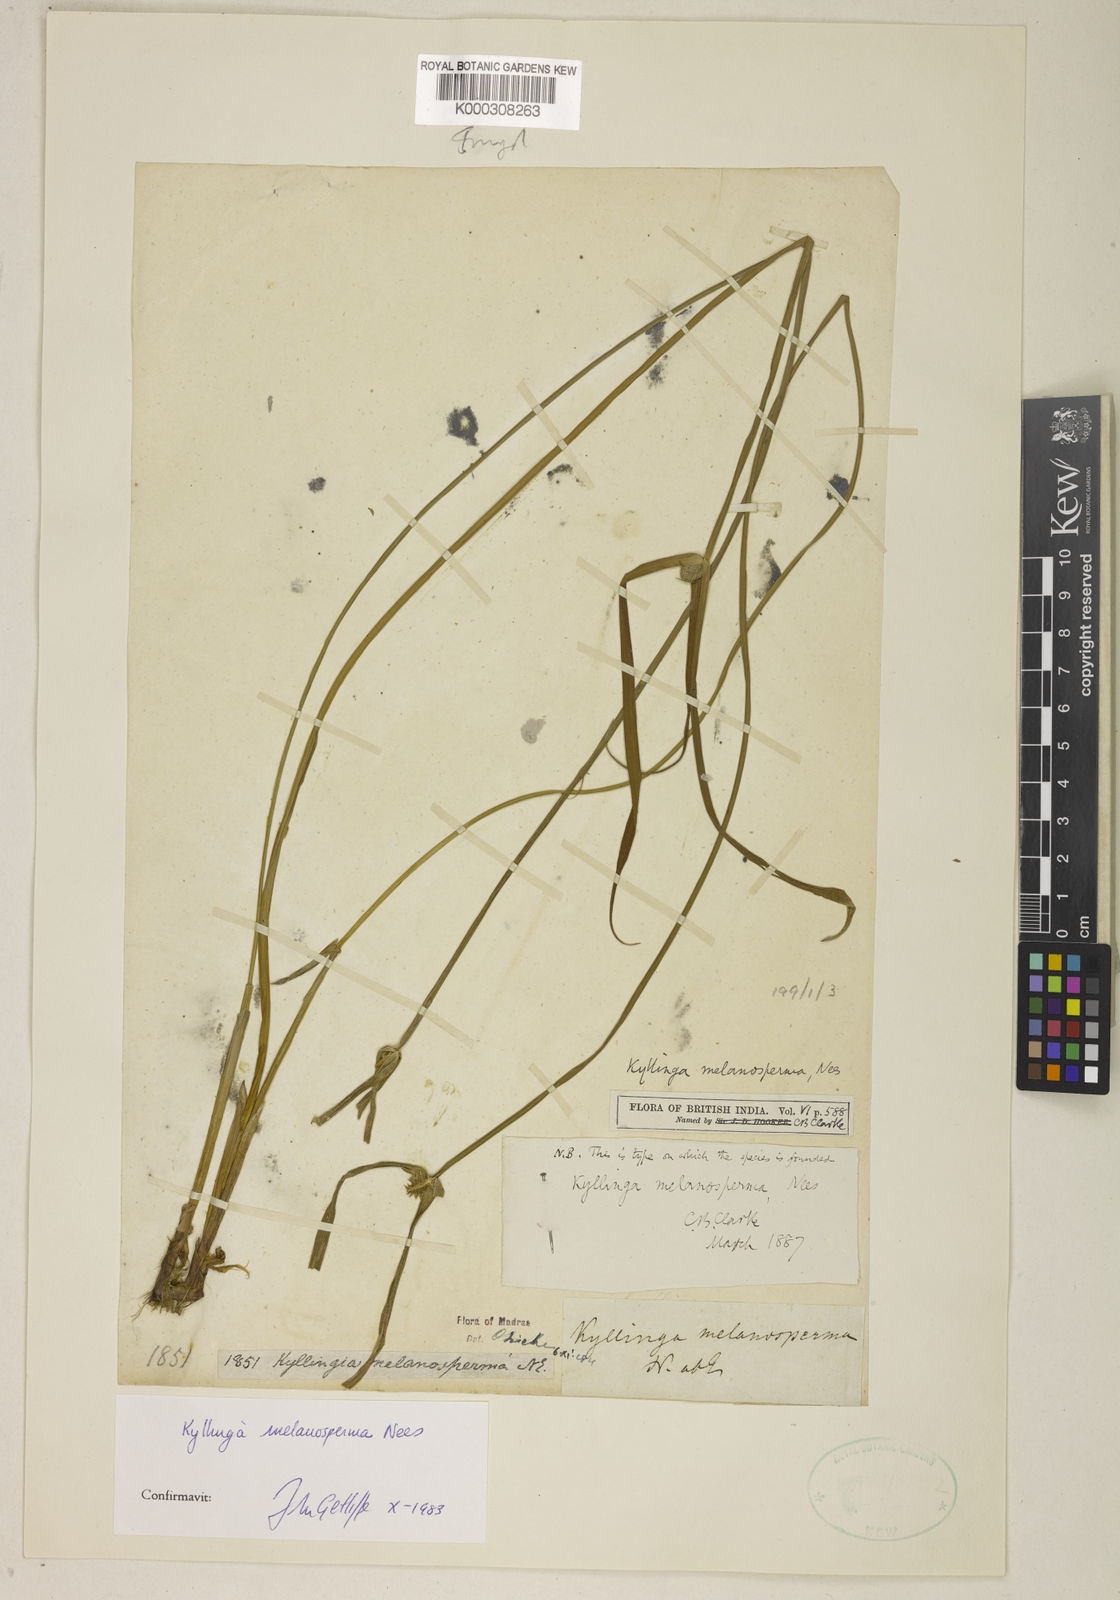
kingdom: Plantae
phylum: Tracheophyta
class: Liliopsida
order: Poales
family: Cyperaceae
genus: Cyperus
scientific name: Cyperus melanospermus
